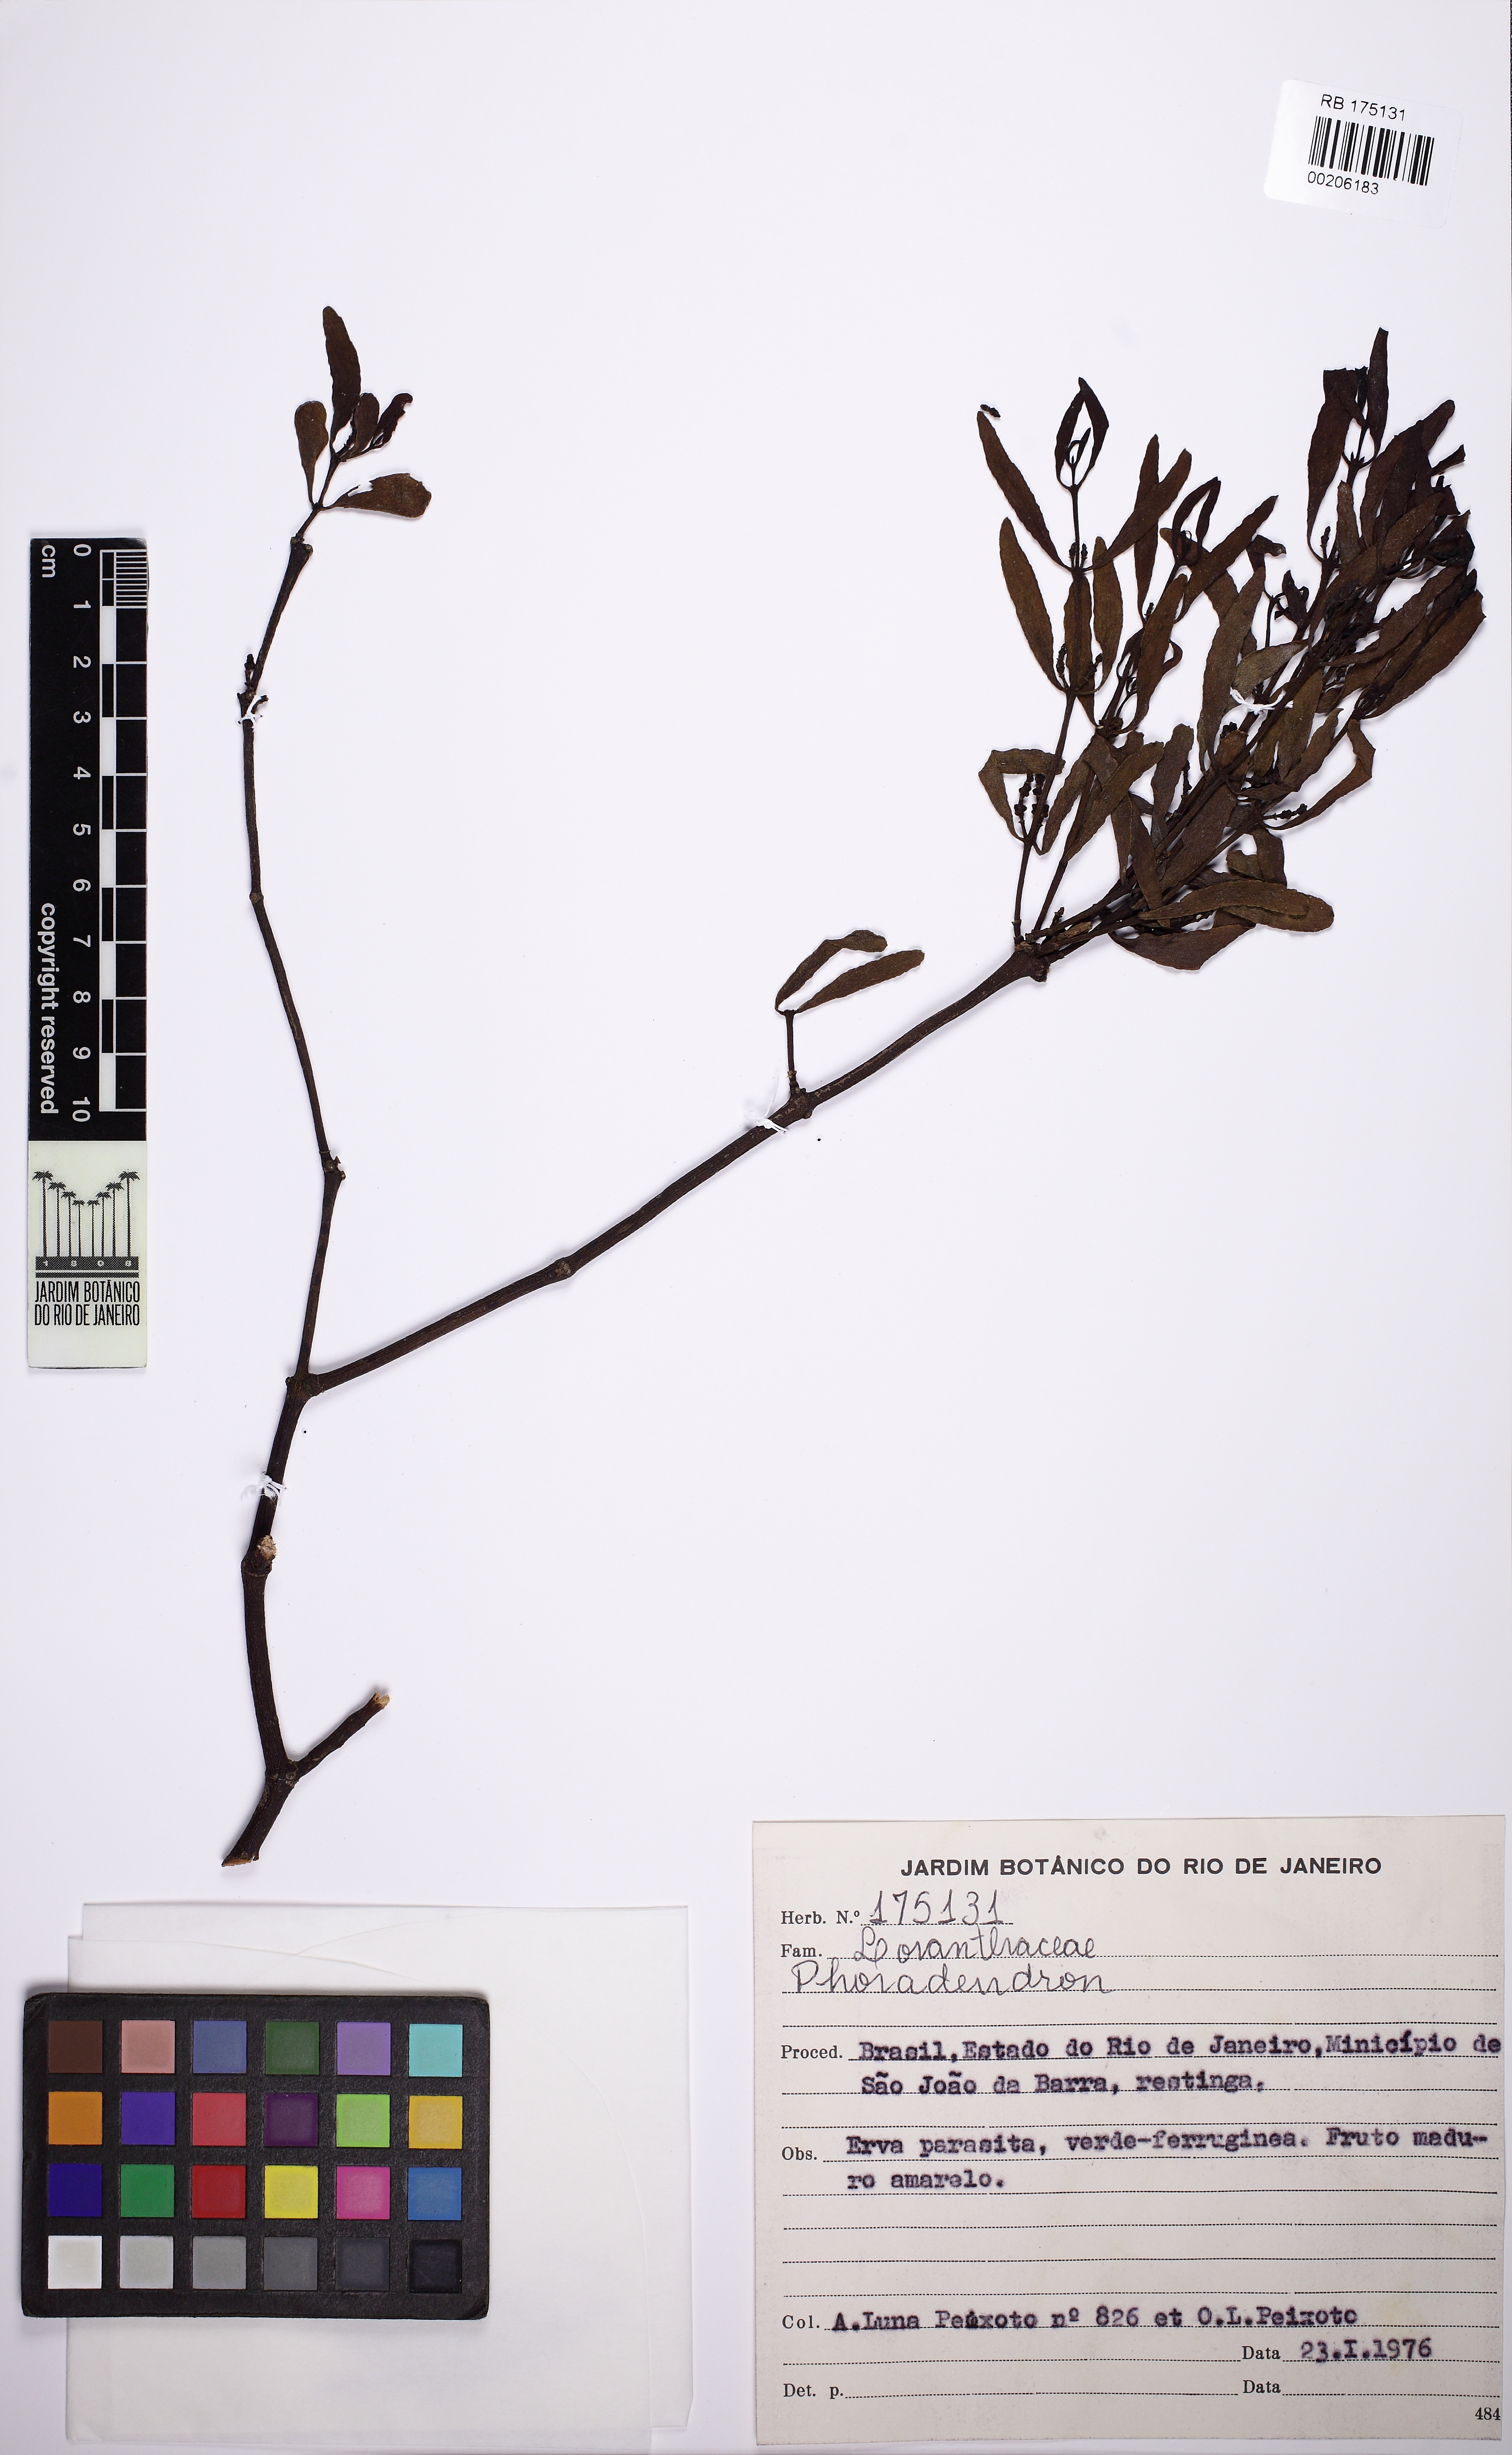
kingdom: Plantae
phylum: Tracheophyta
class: Magnoliopsida
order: Santalales
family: Viscaceae
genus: Phoradendron
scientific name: Phoradendron quadrangulare
